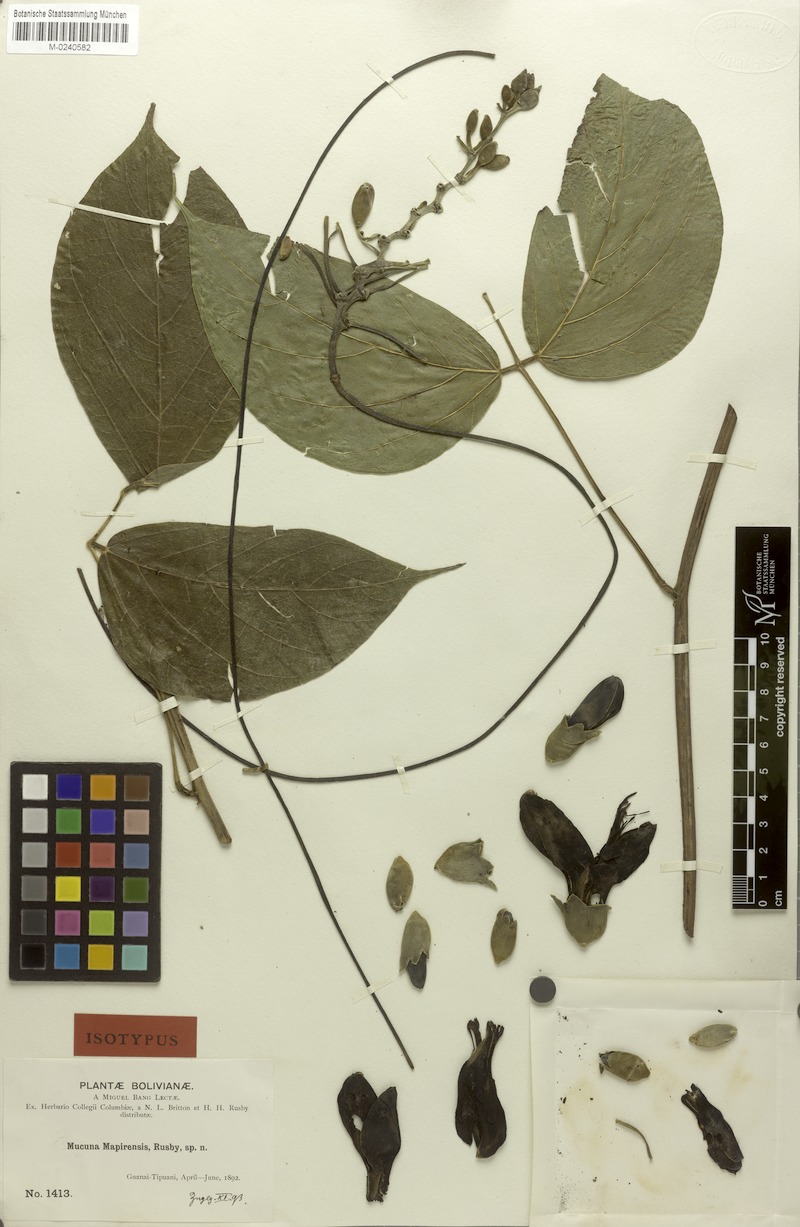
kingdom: Plantae
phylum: Tracheophyta
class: Magnoliopsida
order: Fabales
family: Fabaceae
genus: Mucuna
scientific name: Mucuna mitis
